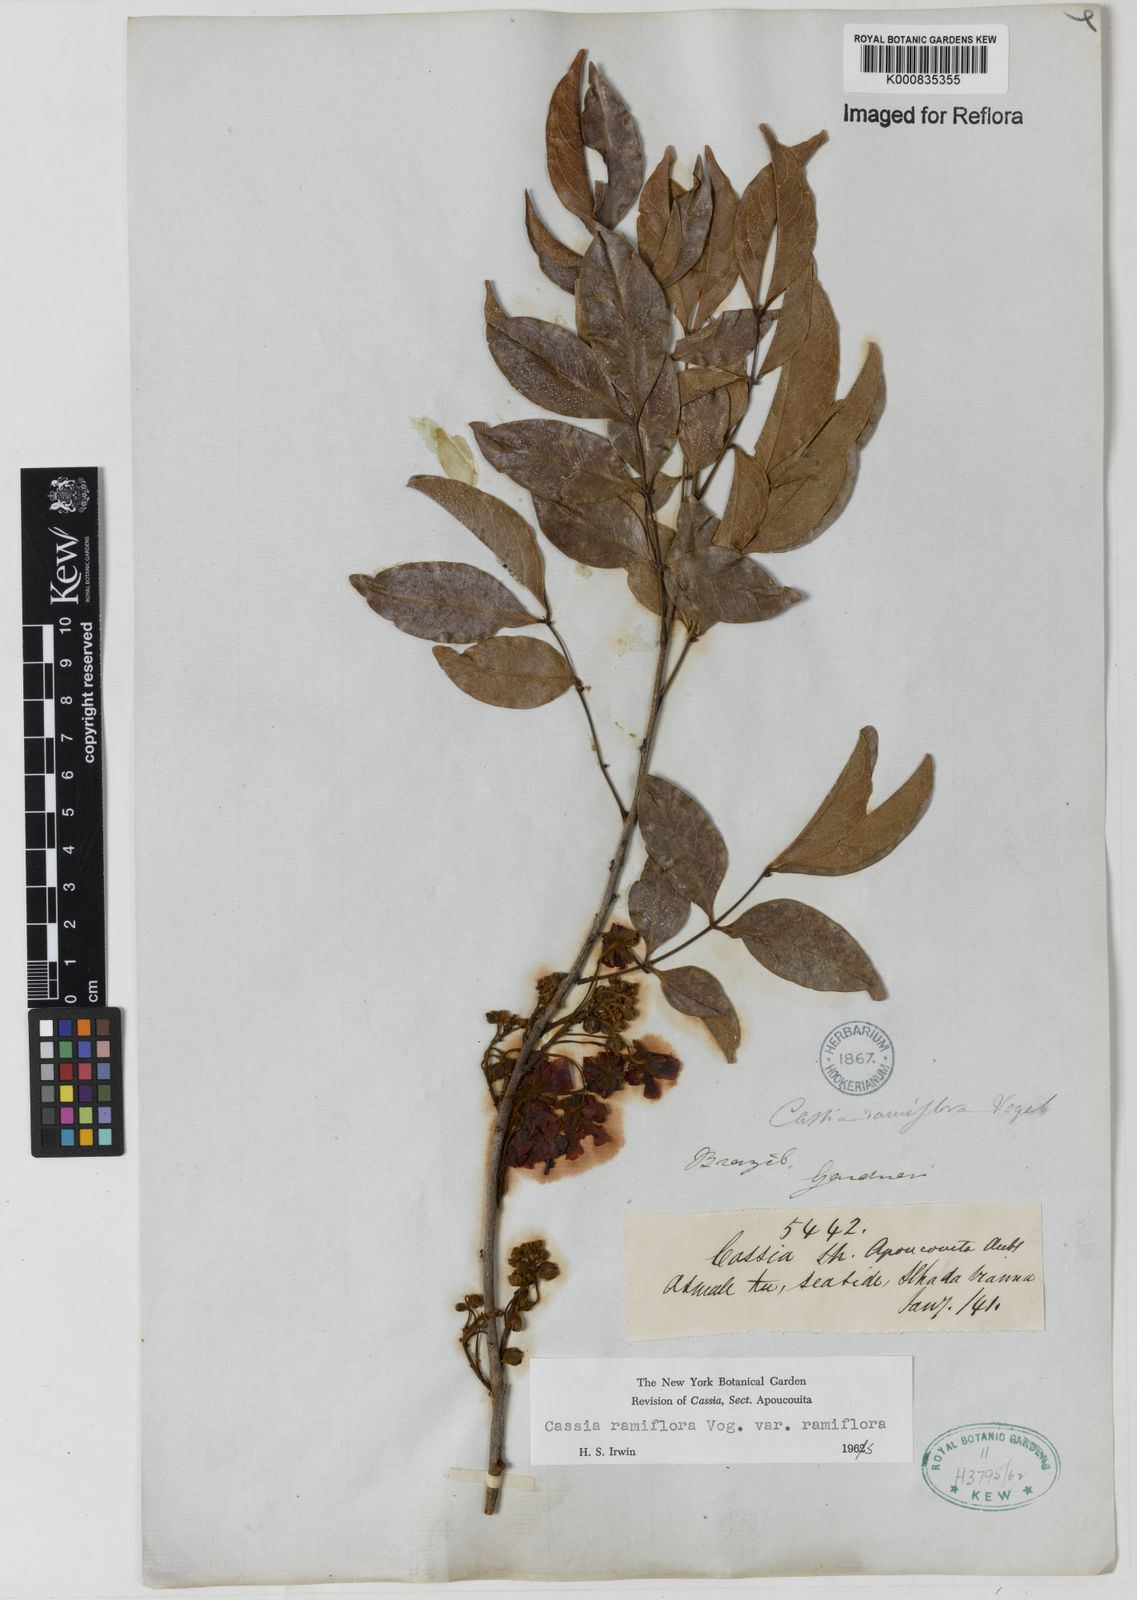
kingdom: Plantae
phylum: Tracheophyta
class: Magnoliopsida
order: Fabales
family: Fabaceae
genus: Chamaecrista
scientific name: Chamaecrista ensiformis
